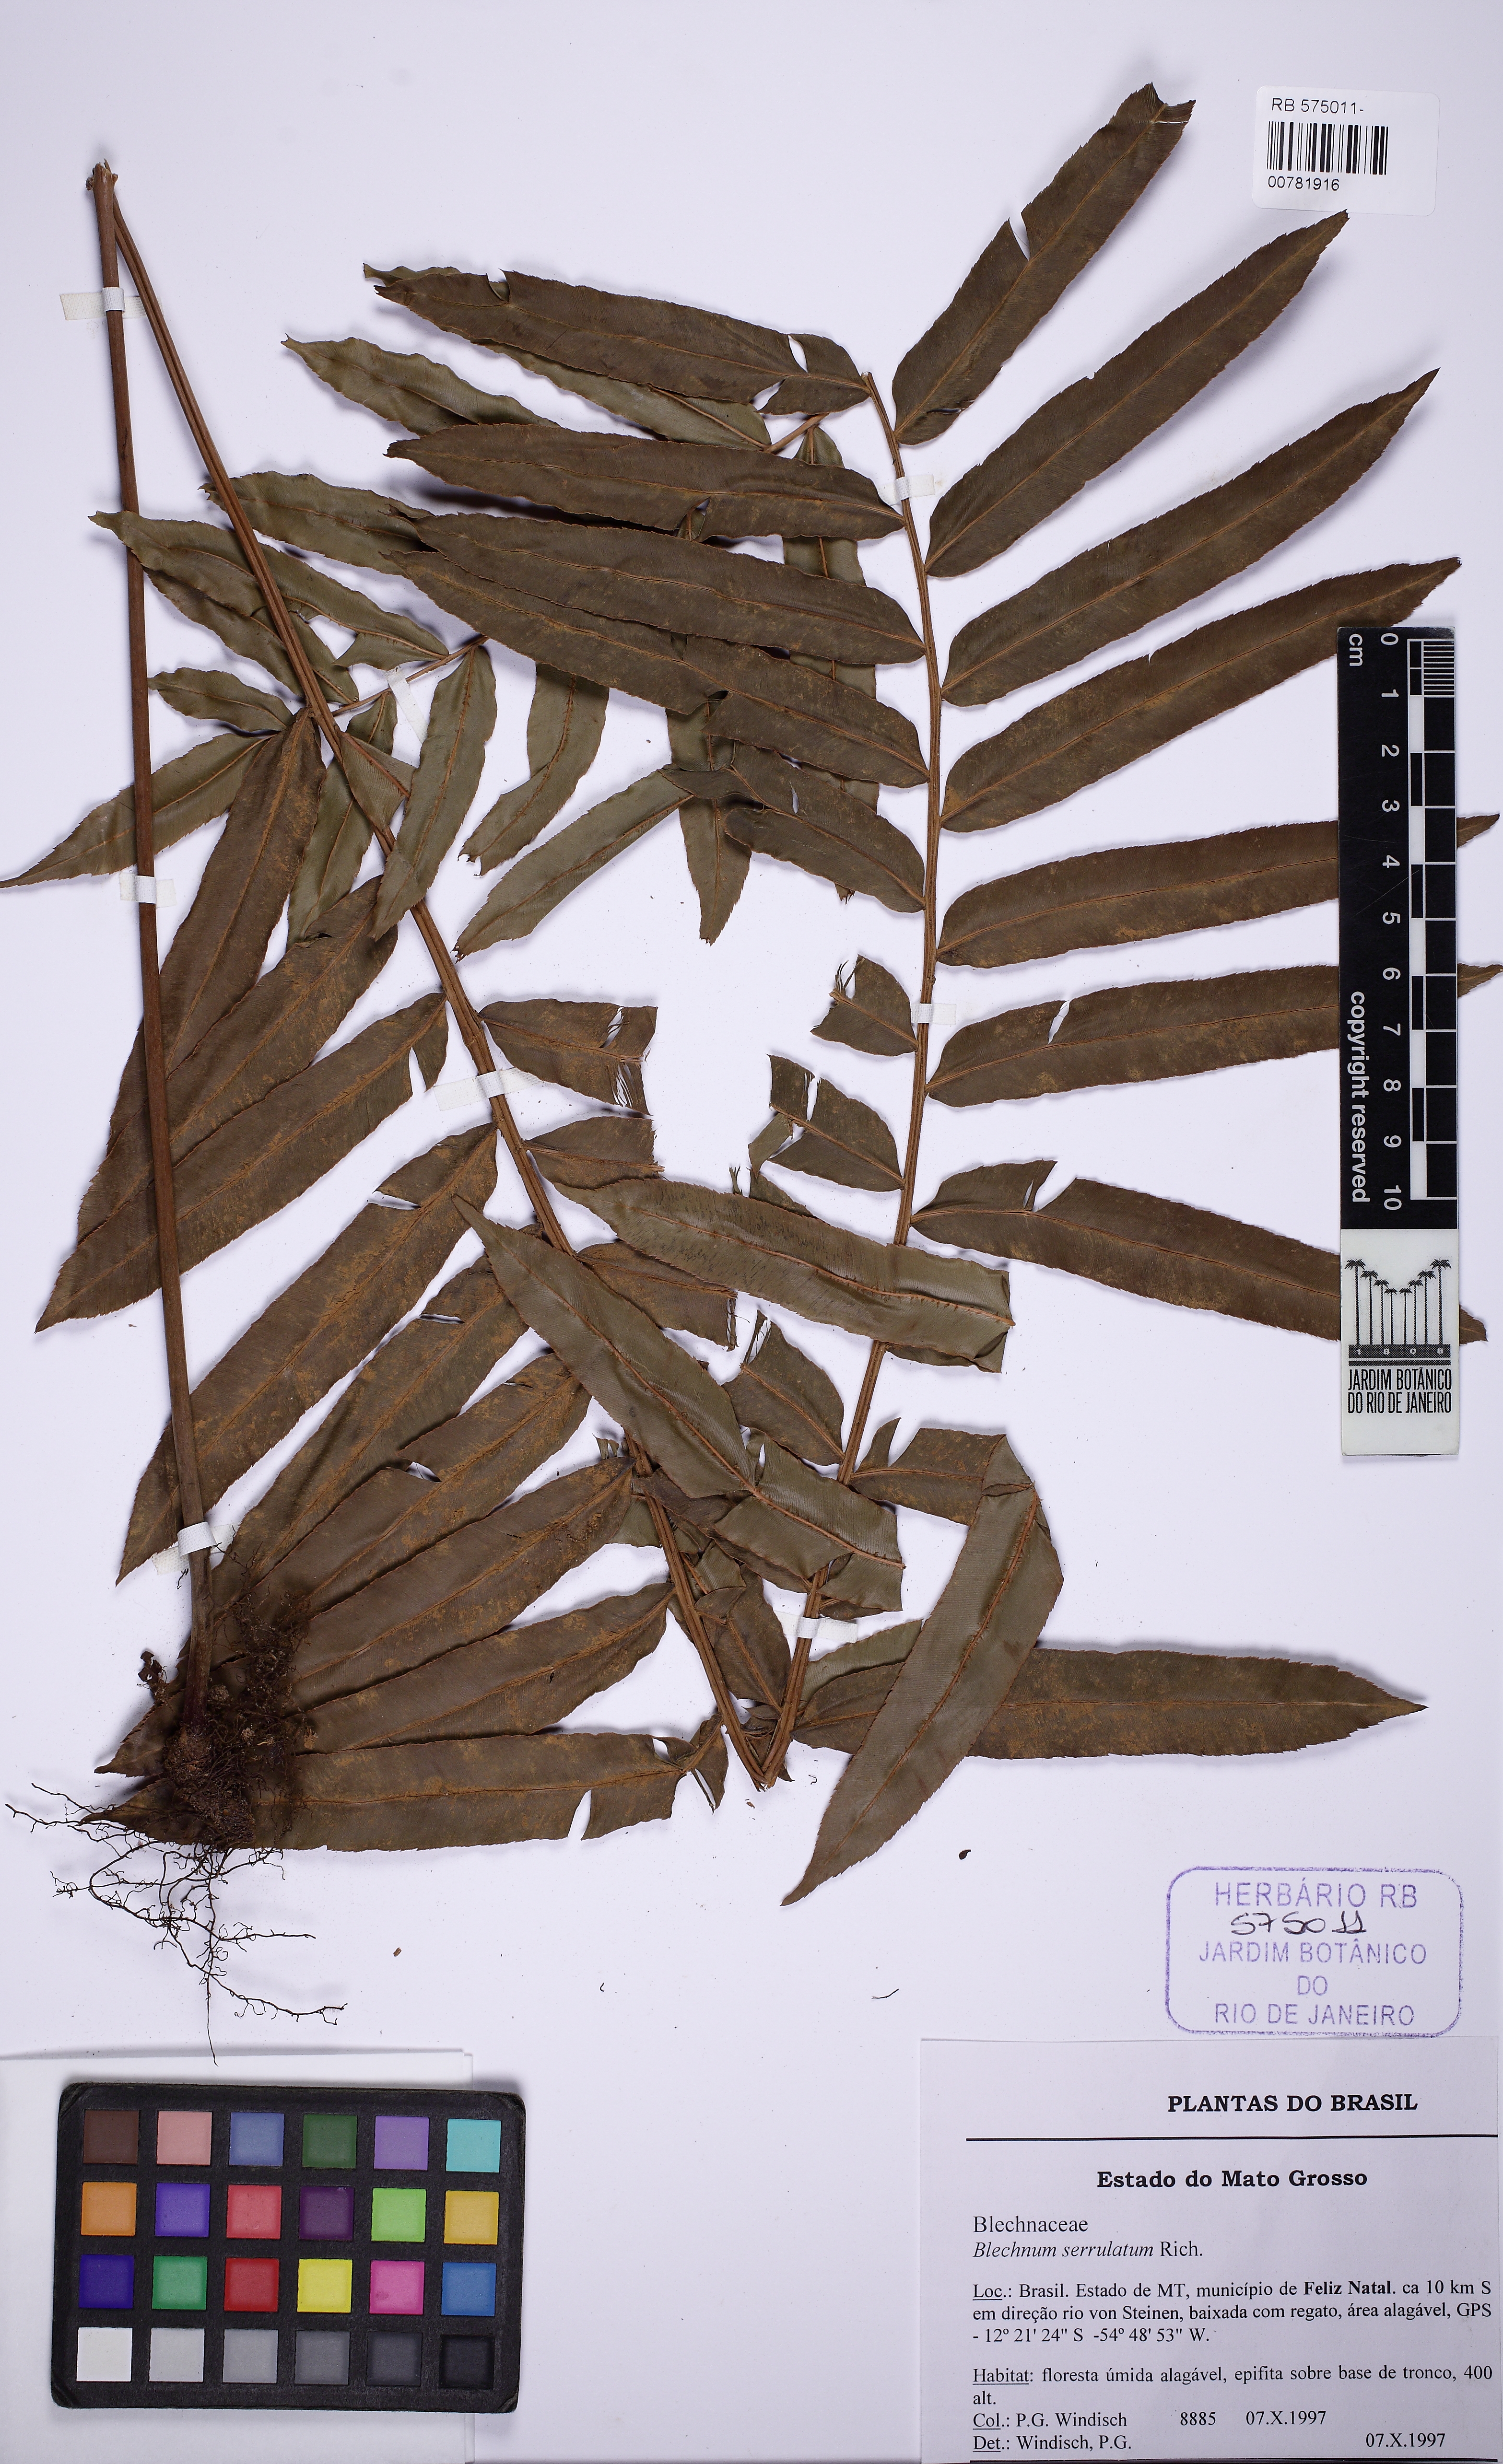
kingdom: Plantae
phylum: Tracheophyta
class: Polypodiopsida
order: Polypodiales
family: Blechnaceae
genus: Telmatoblechnum
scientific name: Telmatoblechnum serrulatum
